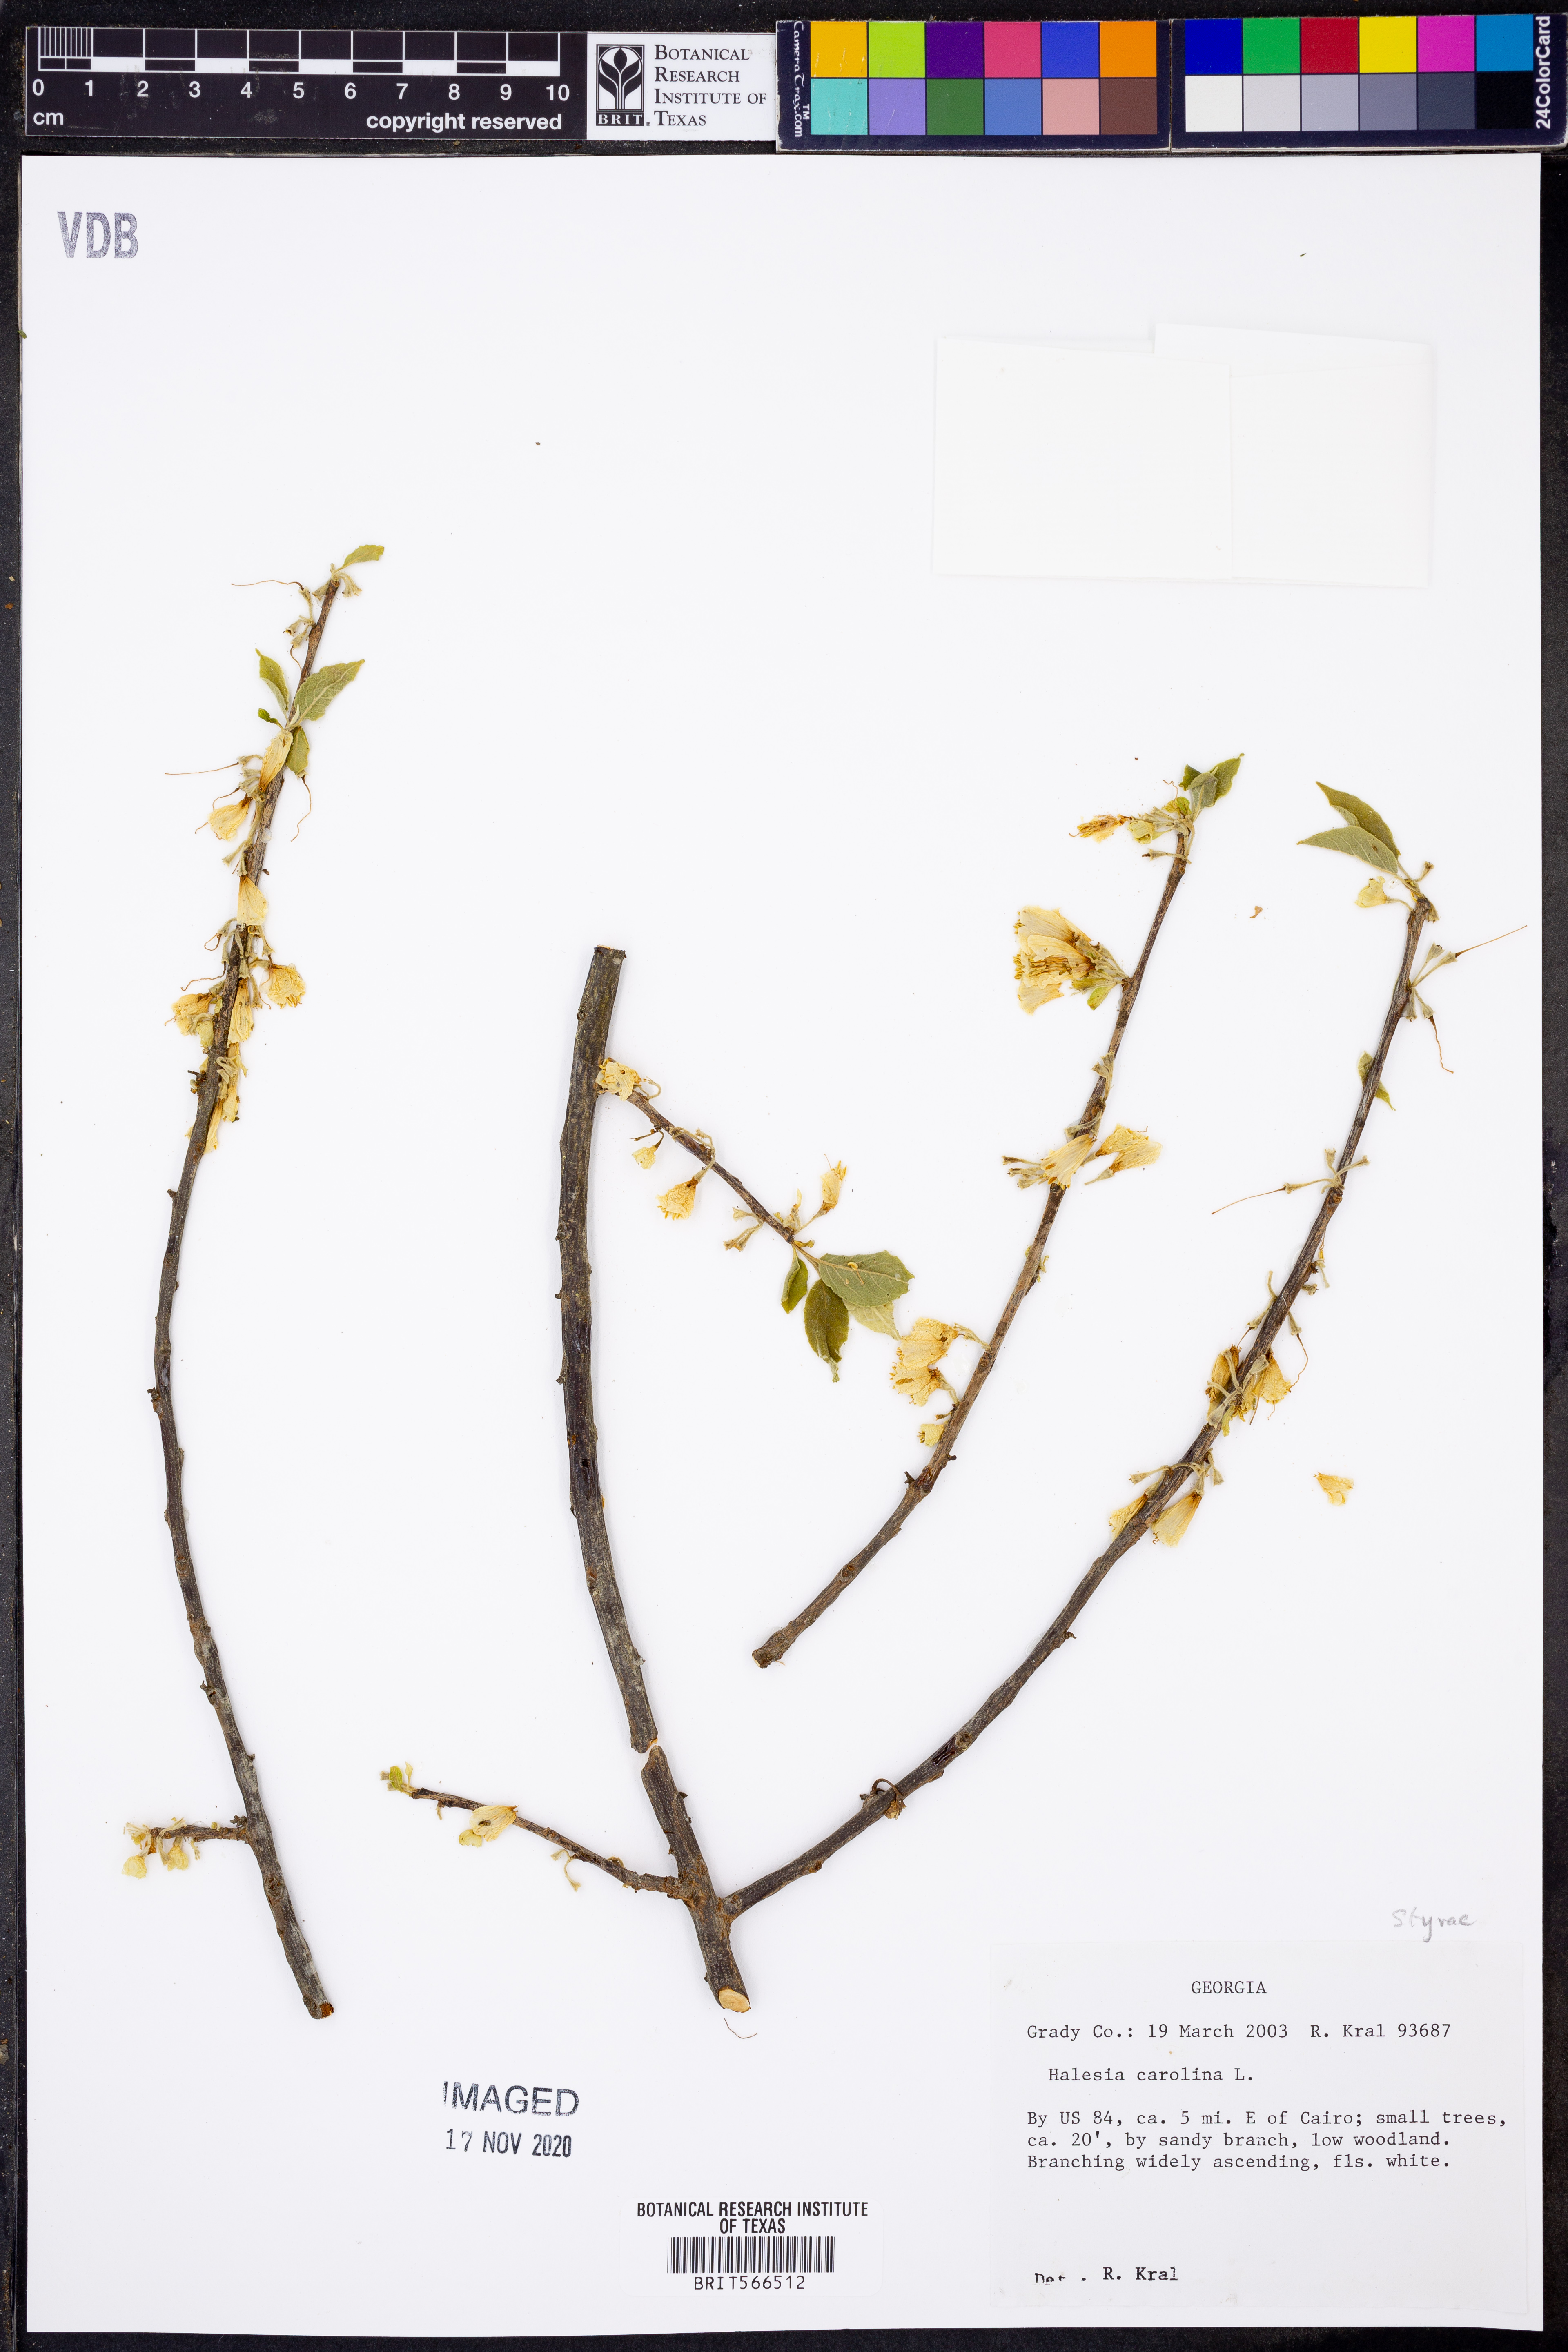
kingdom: Plantae
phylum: Tracheophyta
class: Magnoliopsida
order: Ericales
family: Styracaceae
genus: Halesia
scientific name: Halesia carolina
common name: Carolina silverbell
